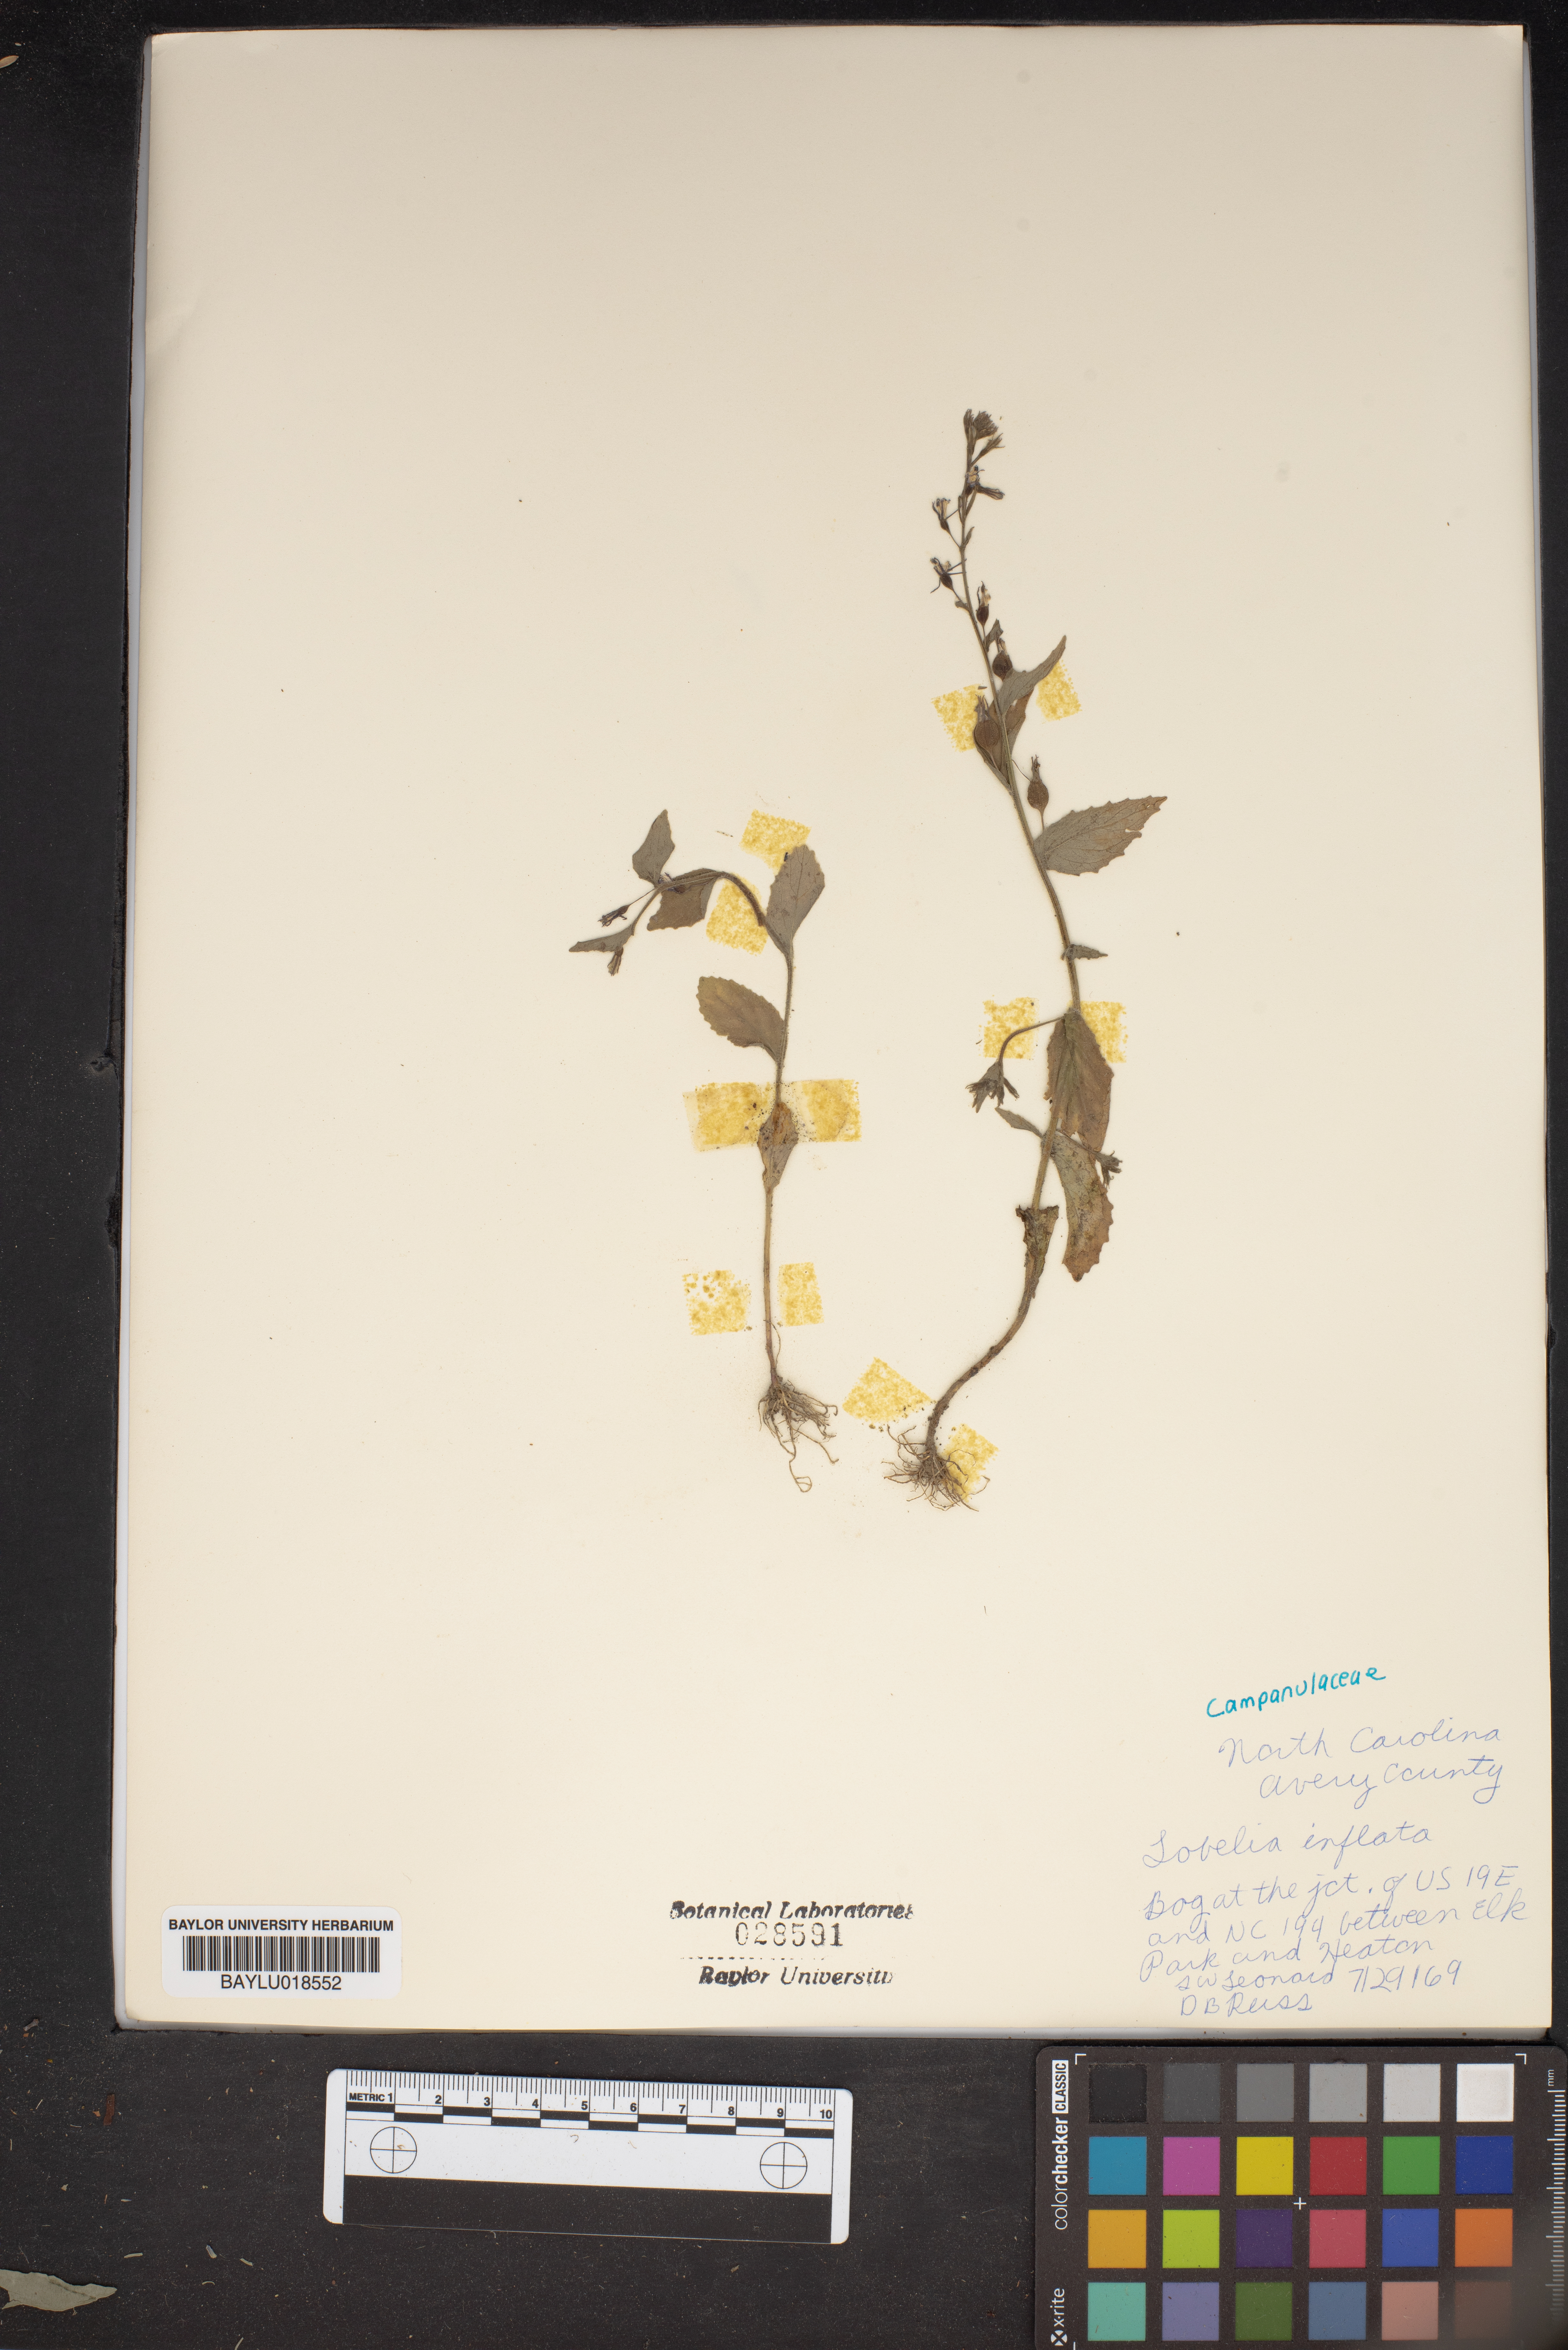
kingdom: Plantae
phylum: Tracheophyta
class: Magnoliopsida
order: Asterales
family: Campanulaceae
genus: Lobelia
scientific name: Lobelia inflata
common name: Indian tobacco
